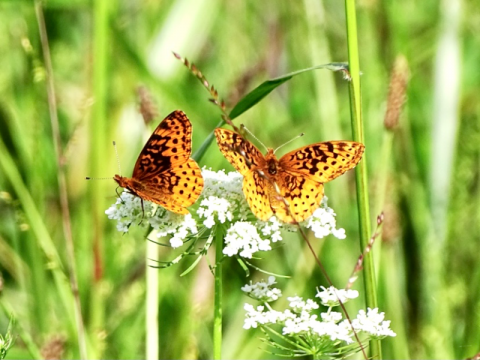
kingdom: Animalia
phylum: Arthropoda
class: Insecta
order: Lepidoptera
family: Nymphalidae
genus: Clossiana
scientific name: Clossiana toddi
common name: Meadow Fritillary
